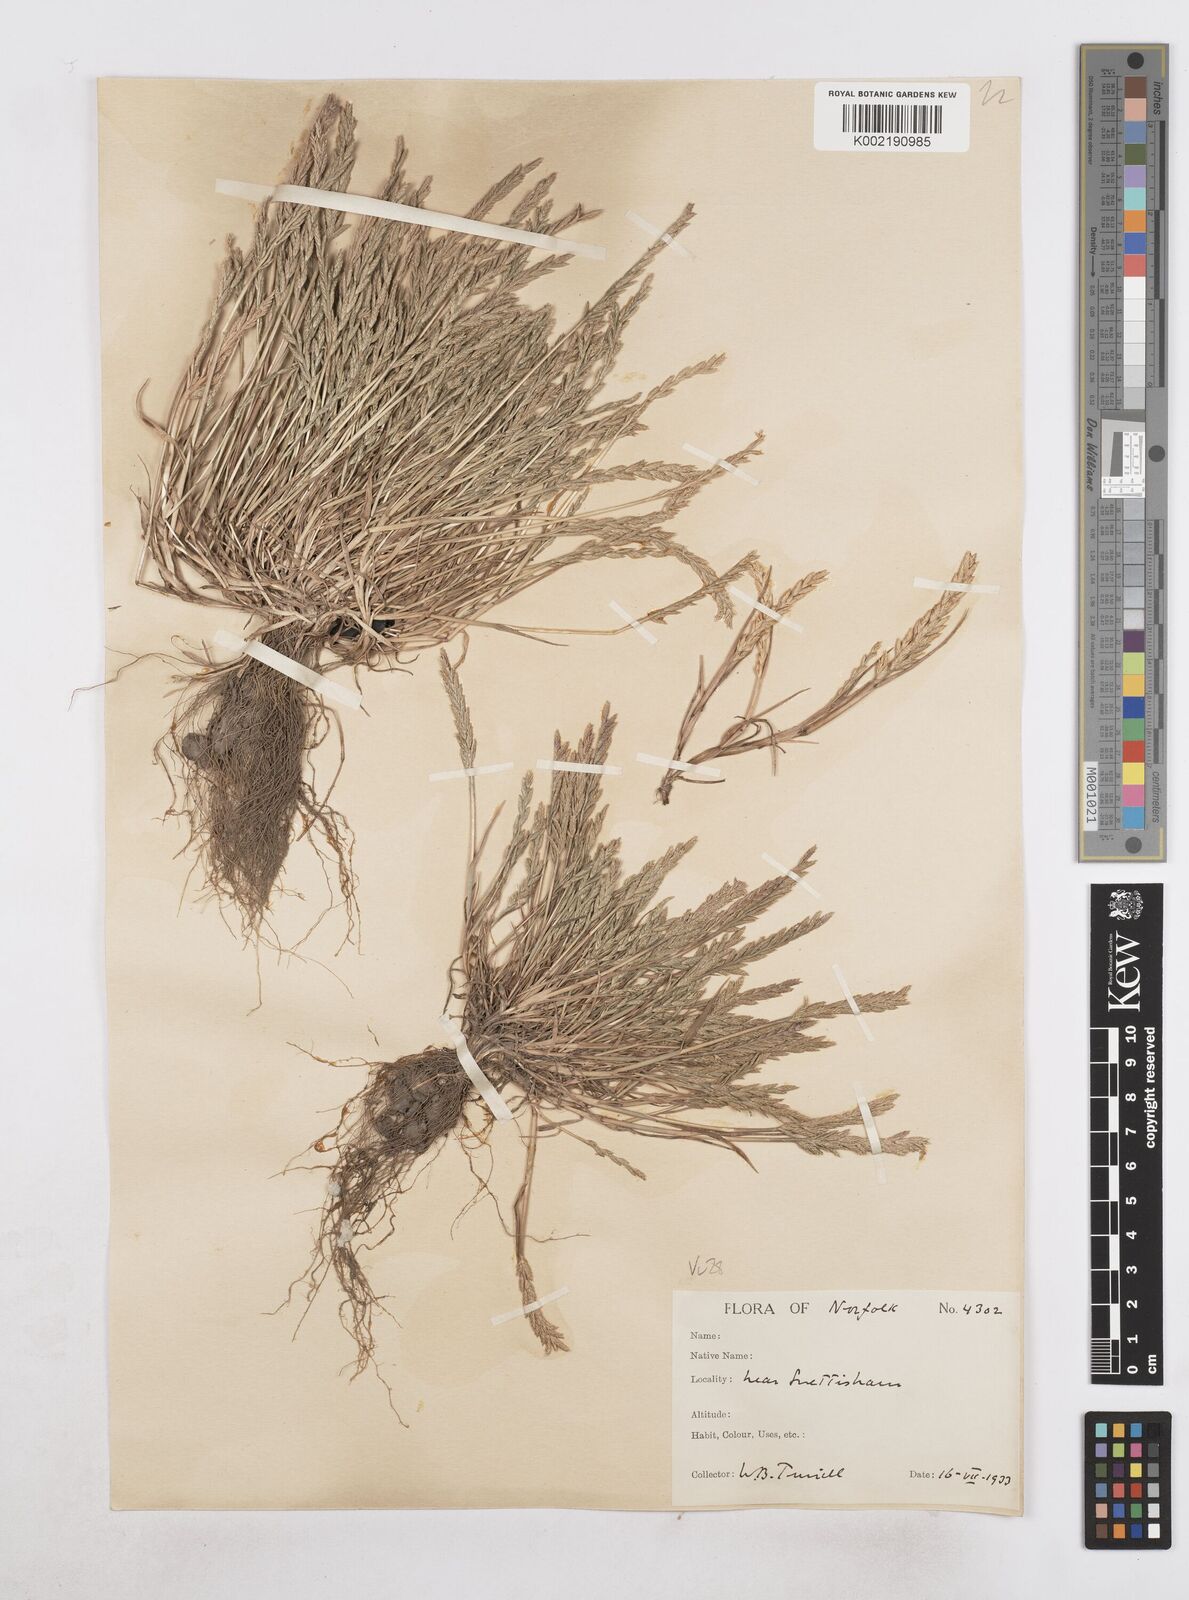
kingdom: Plantae
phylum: Tracheophyta
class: Liliopsida
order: Poales
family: Poaceae
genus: Catapodium
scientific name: Catapodium marinum
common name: Sea fern-grass
